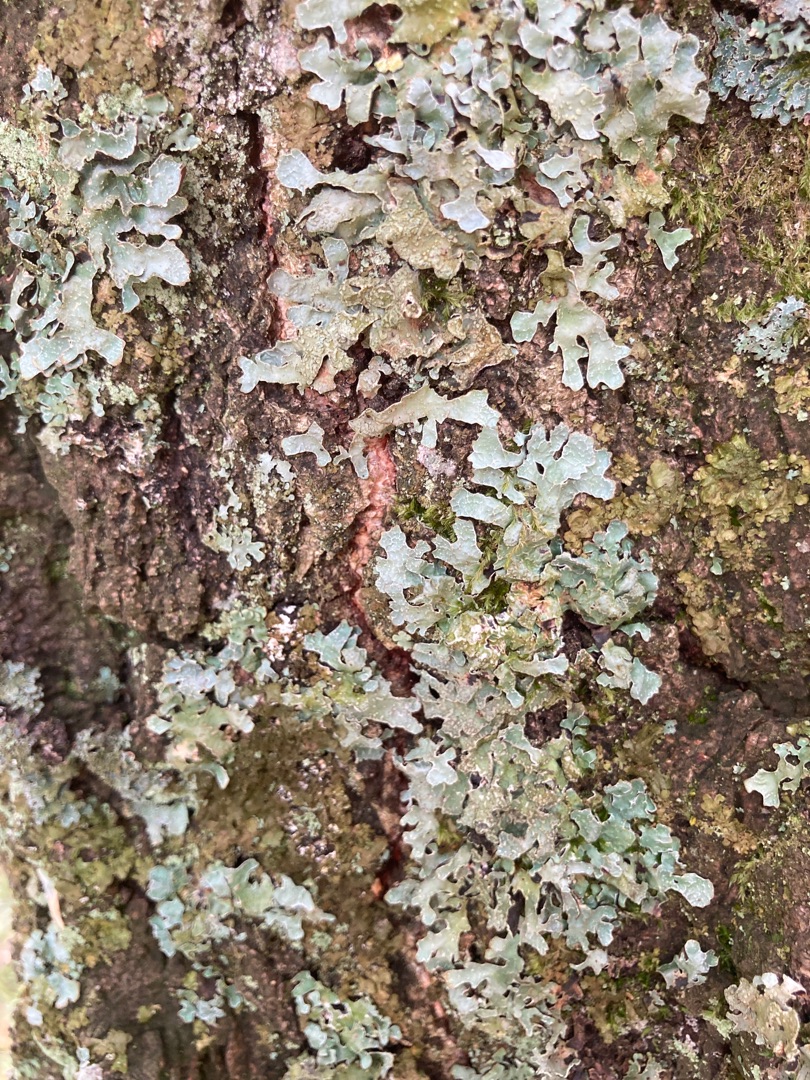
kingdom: Fungi
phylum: Ascomycota
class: Lecanoromycetes
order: Lecanorales
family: Parmeliaceae
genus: Parmelia
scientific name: Parmelia sulcata
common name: Rynket skållav
